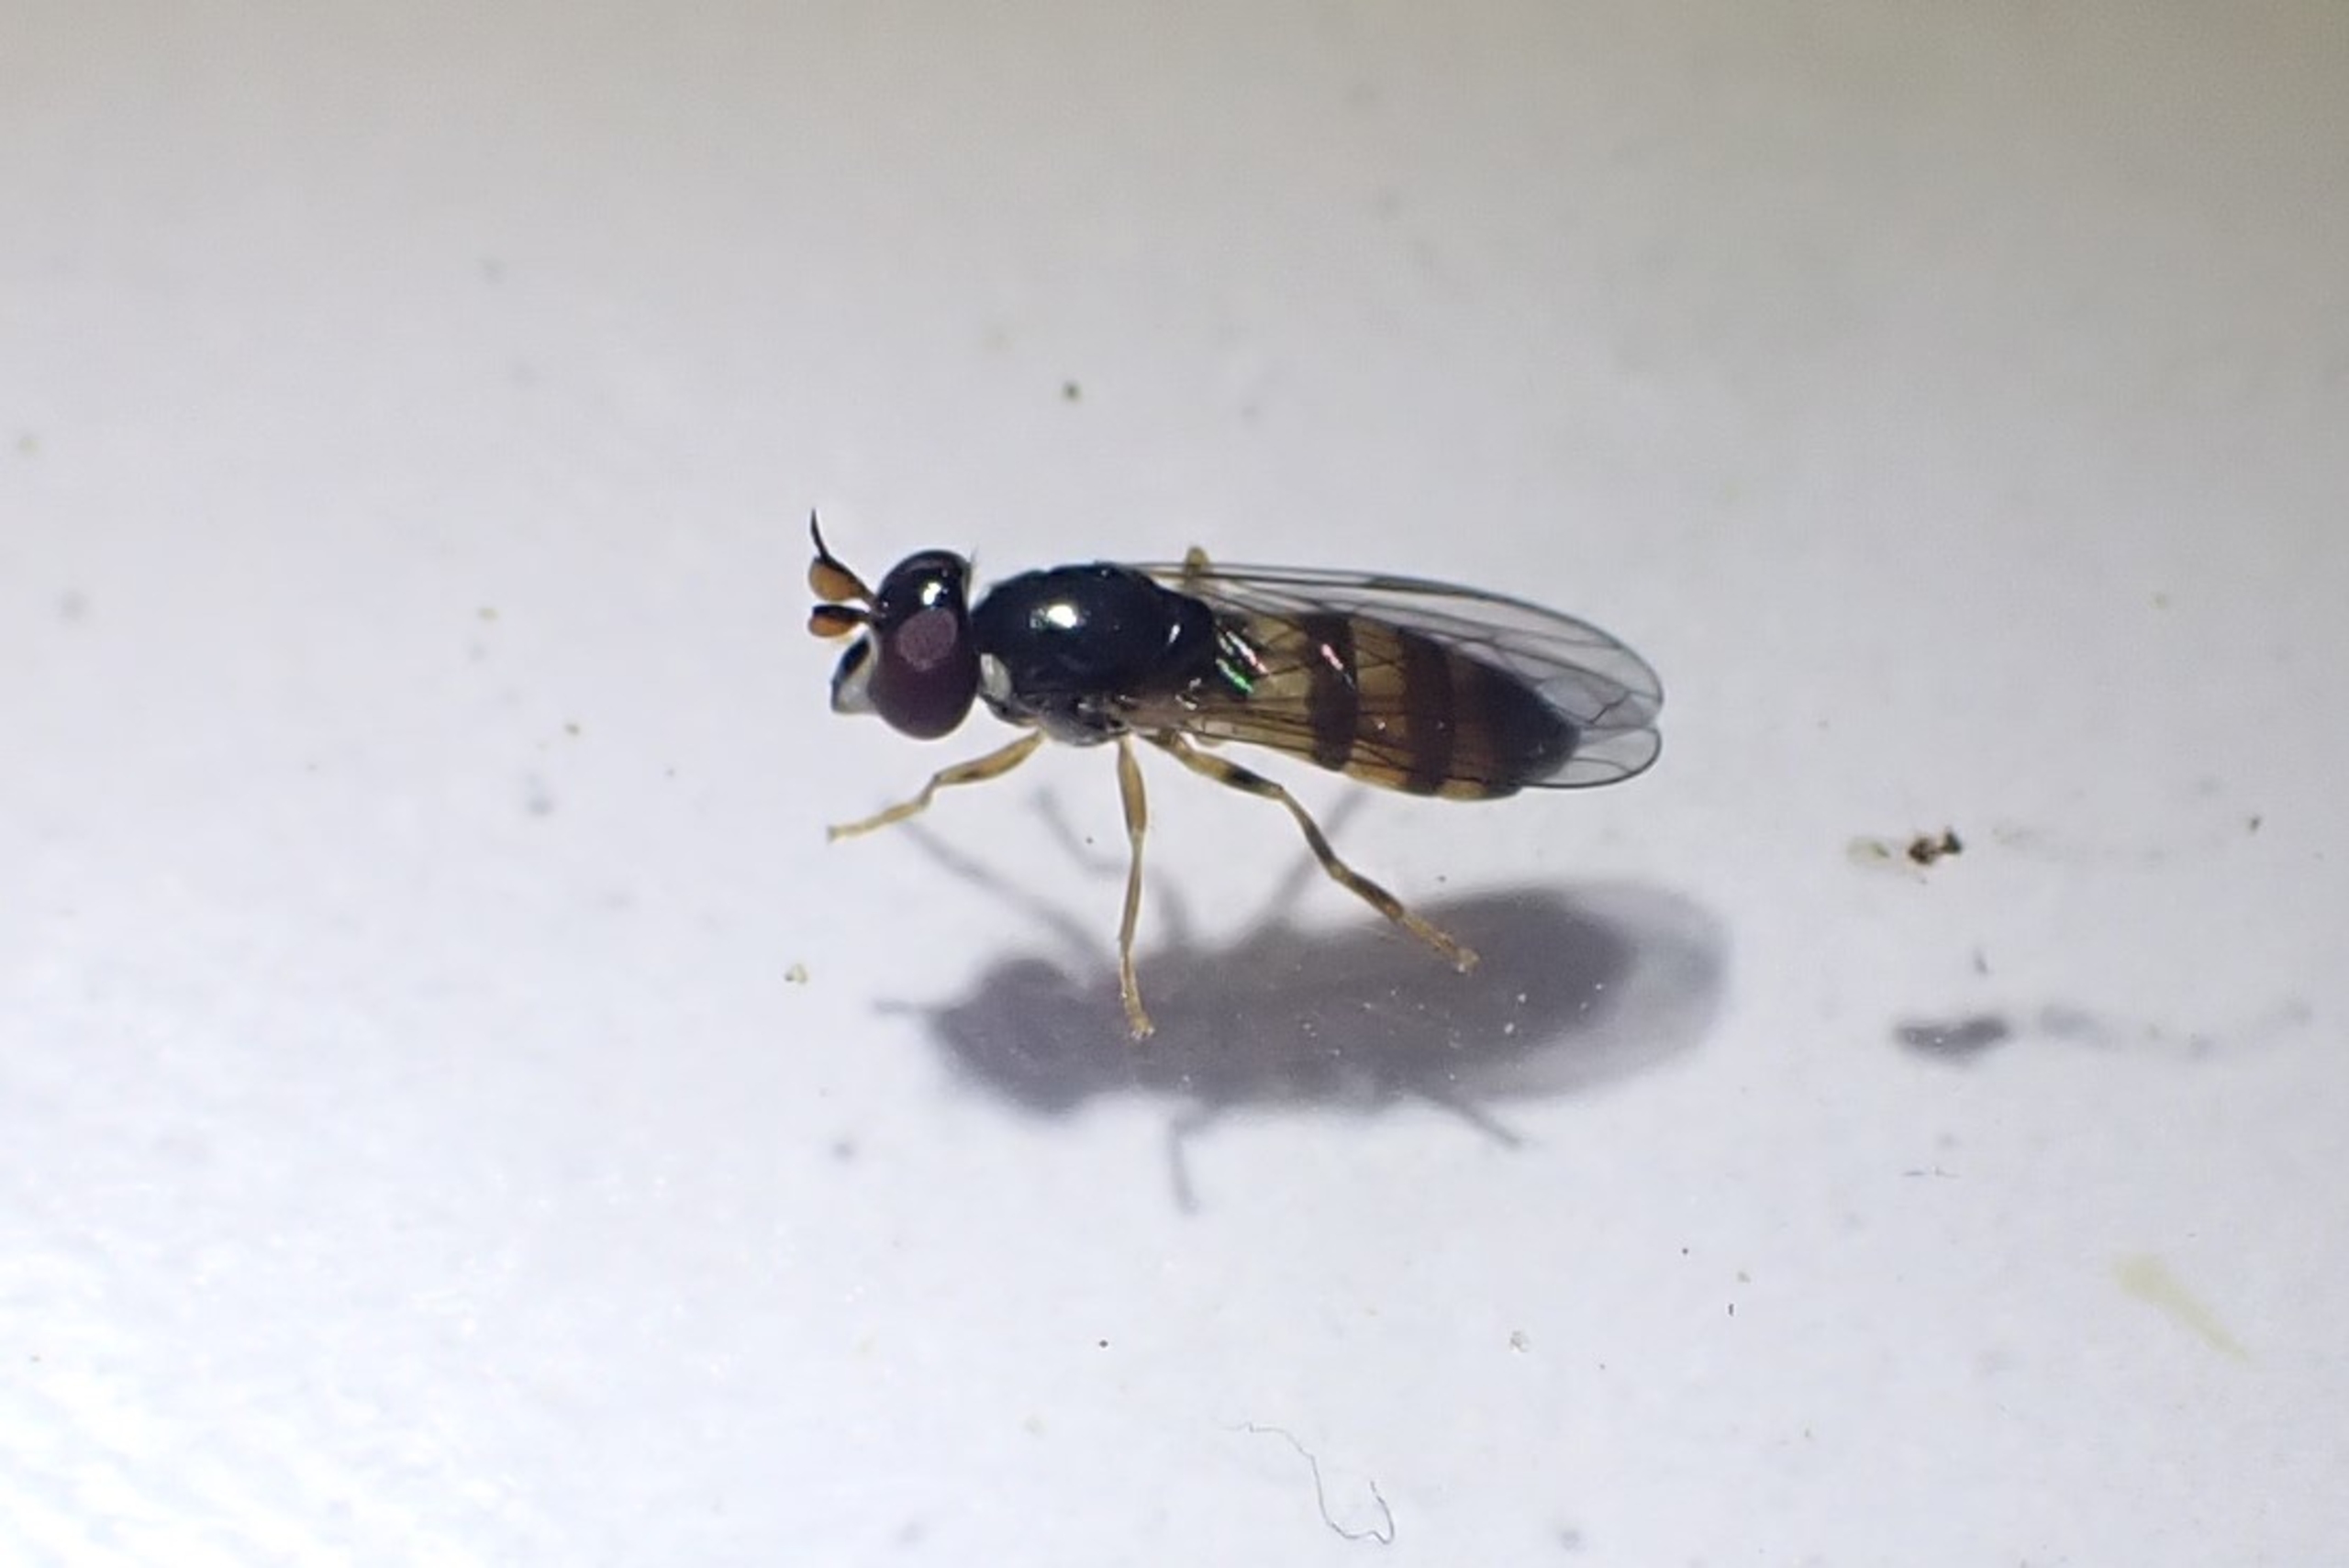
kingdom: Animalia
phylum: Arthropoda
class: Insecta
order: Diptera
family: Syrphidae
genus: Pelecocera
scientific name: Pelecocera tricincta
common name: Bredhorn-svirreflue
